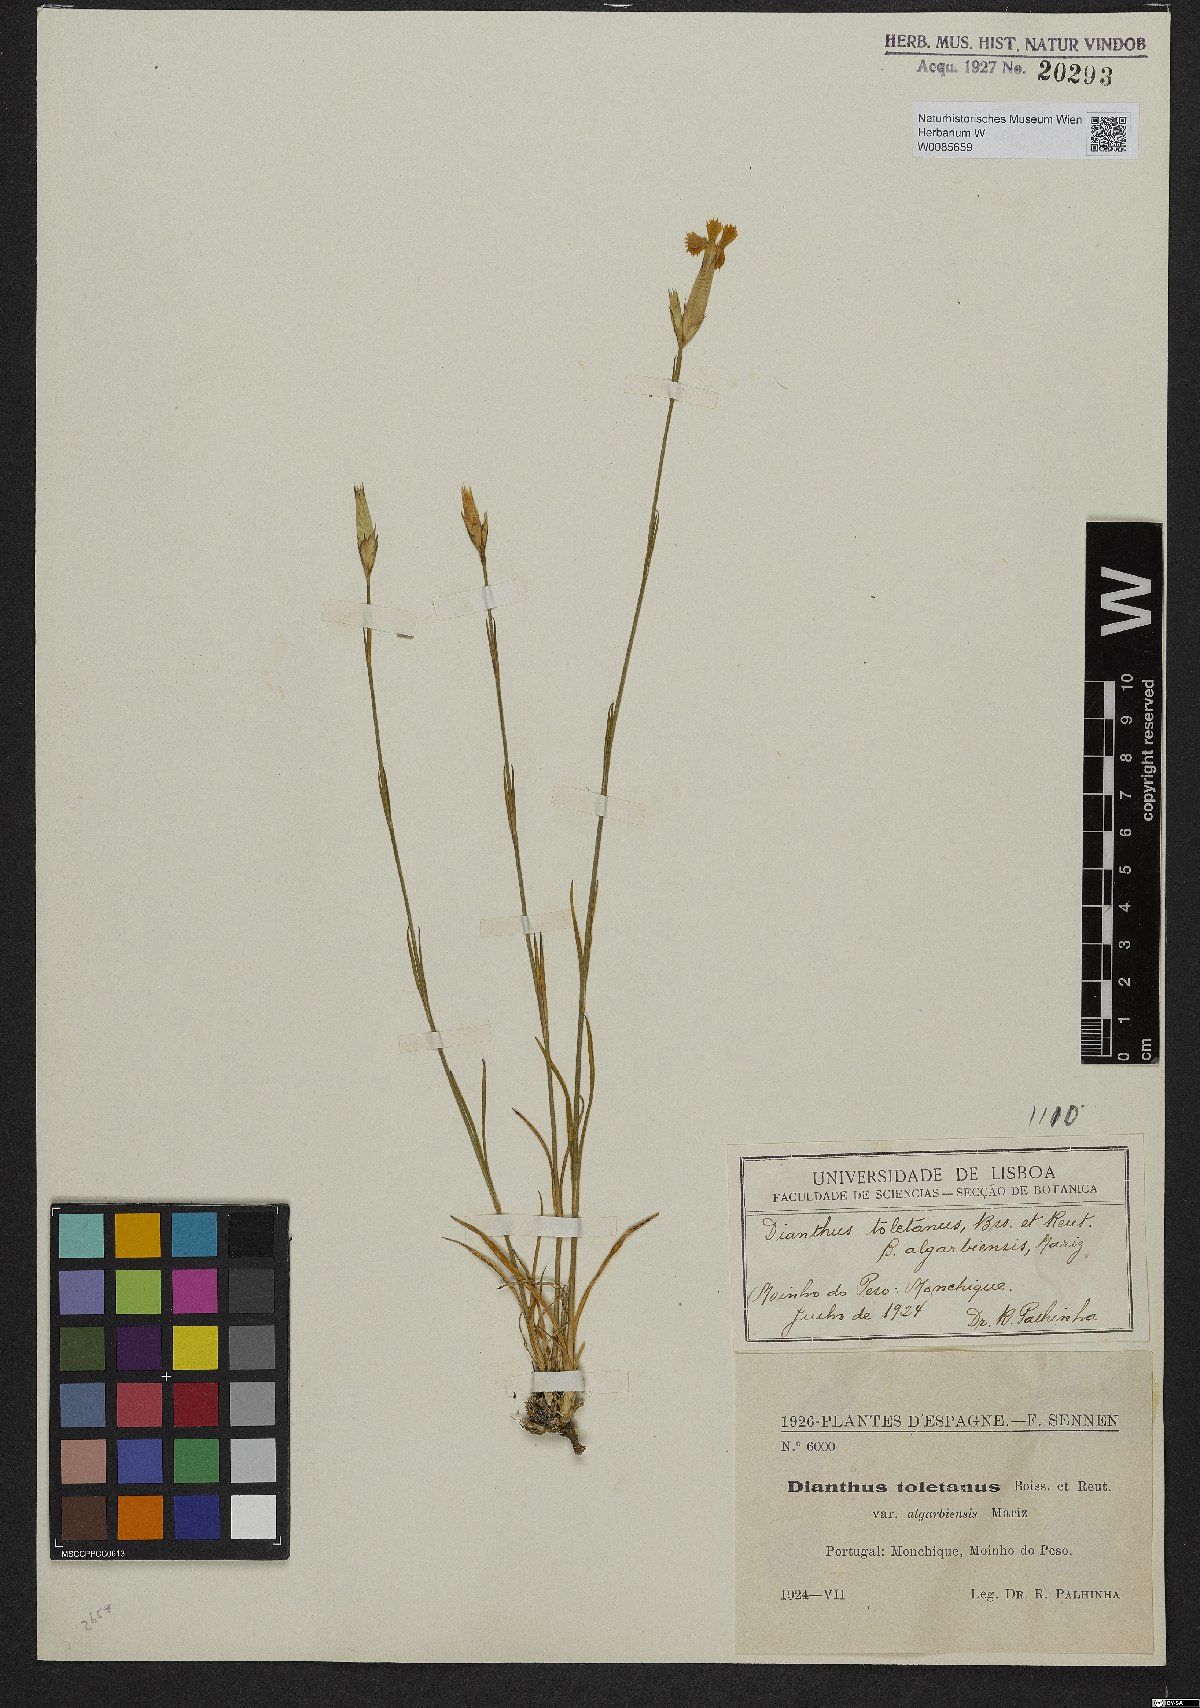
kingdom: Plantae
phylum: Tracheophyta
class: Magnoliopsida
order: Caryophyllales
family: Caryophyllaceae
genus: Dianthus
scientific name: Dianthus toletanus
